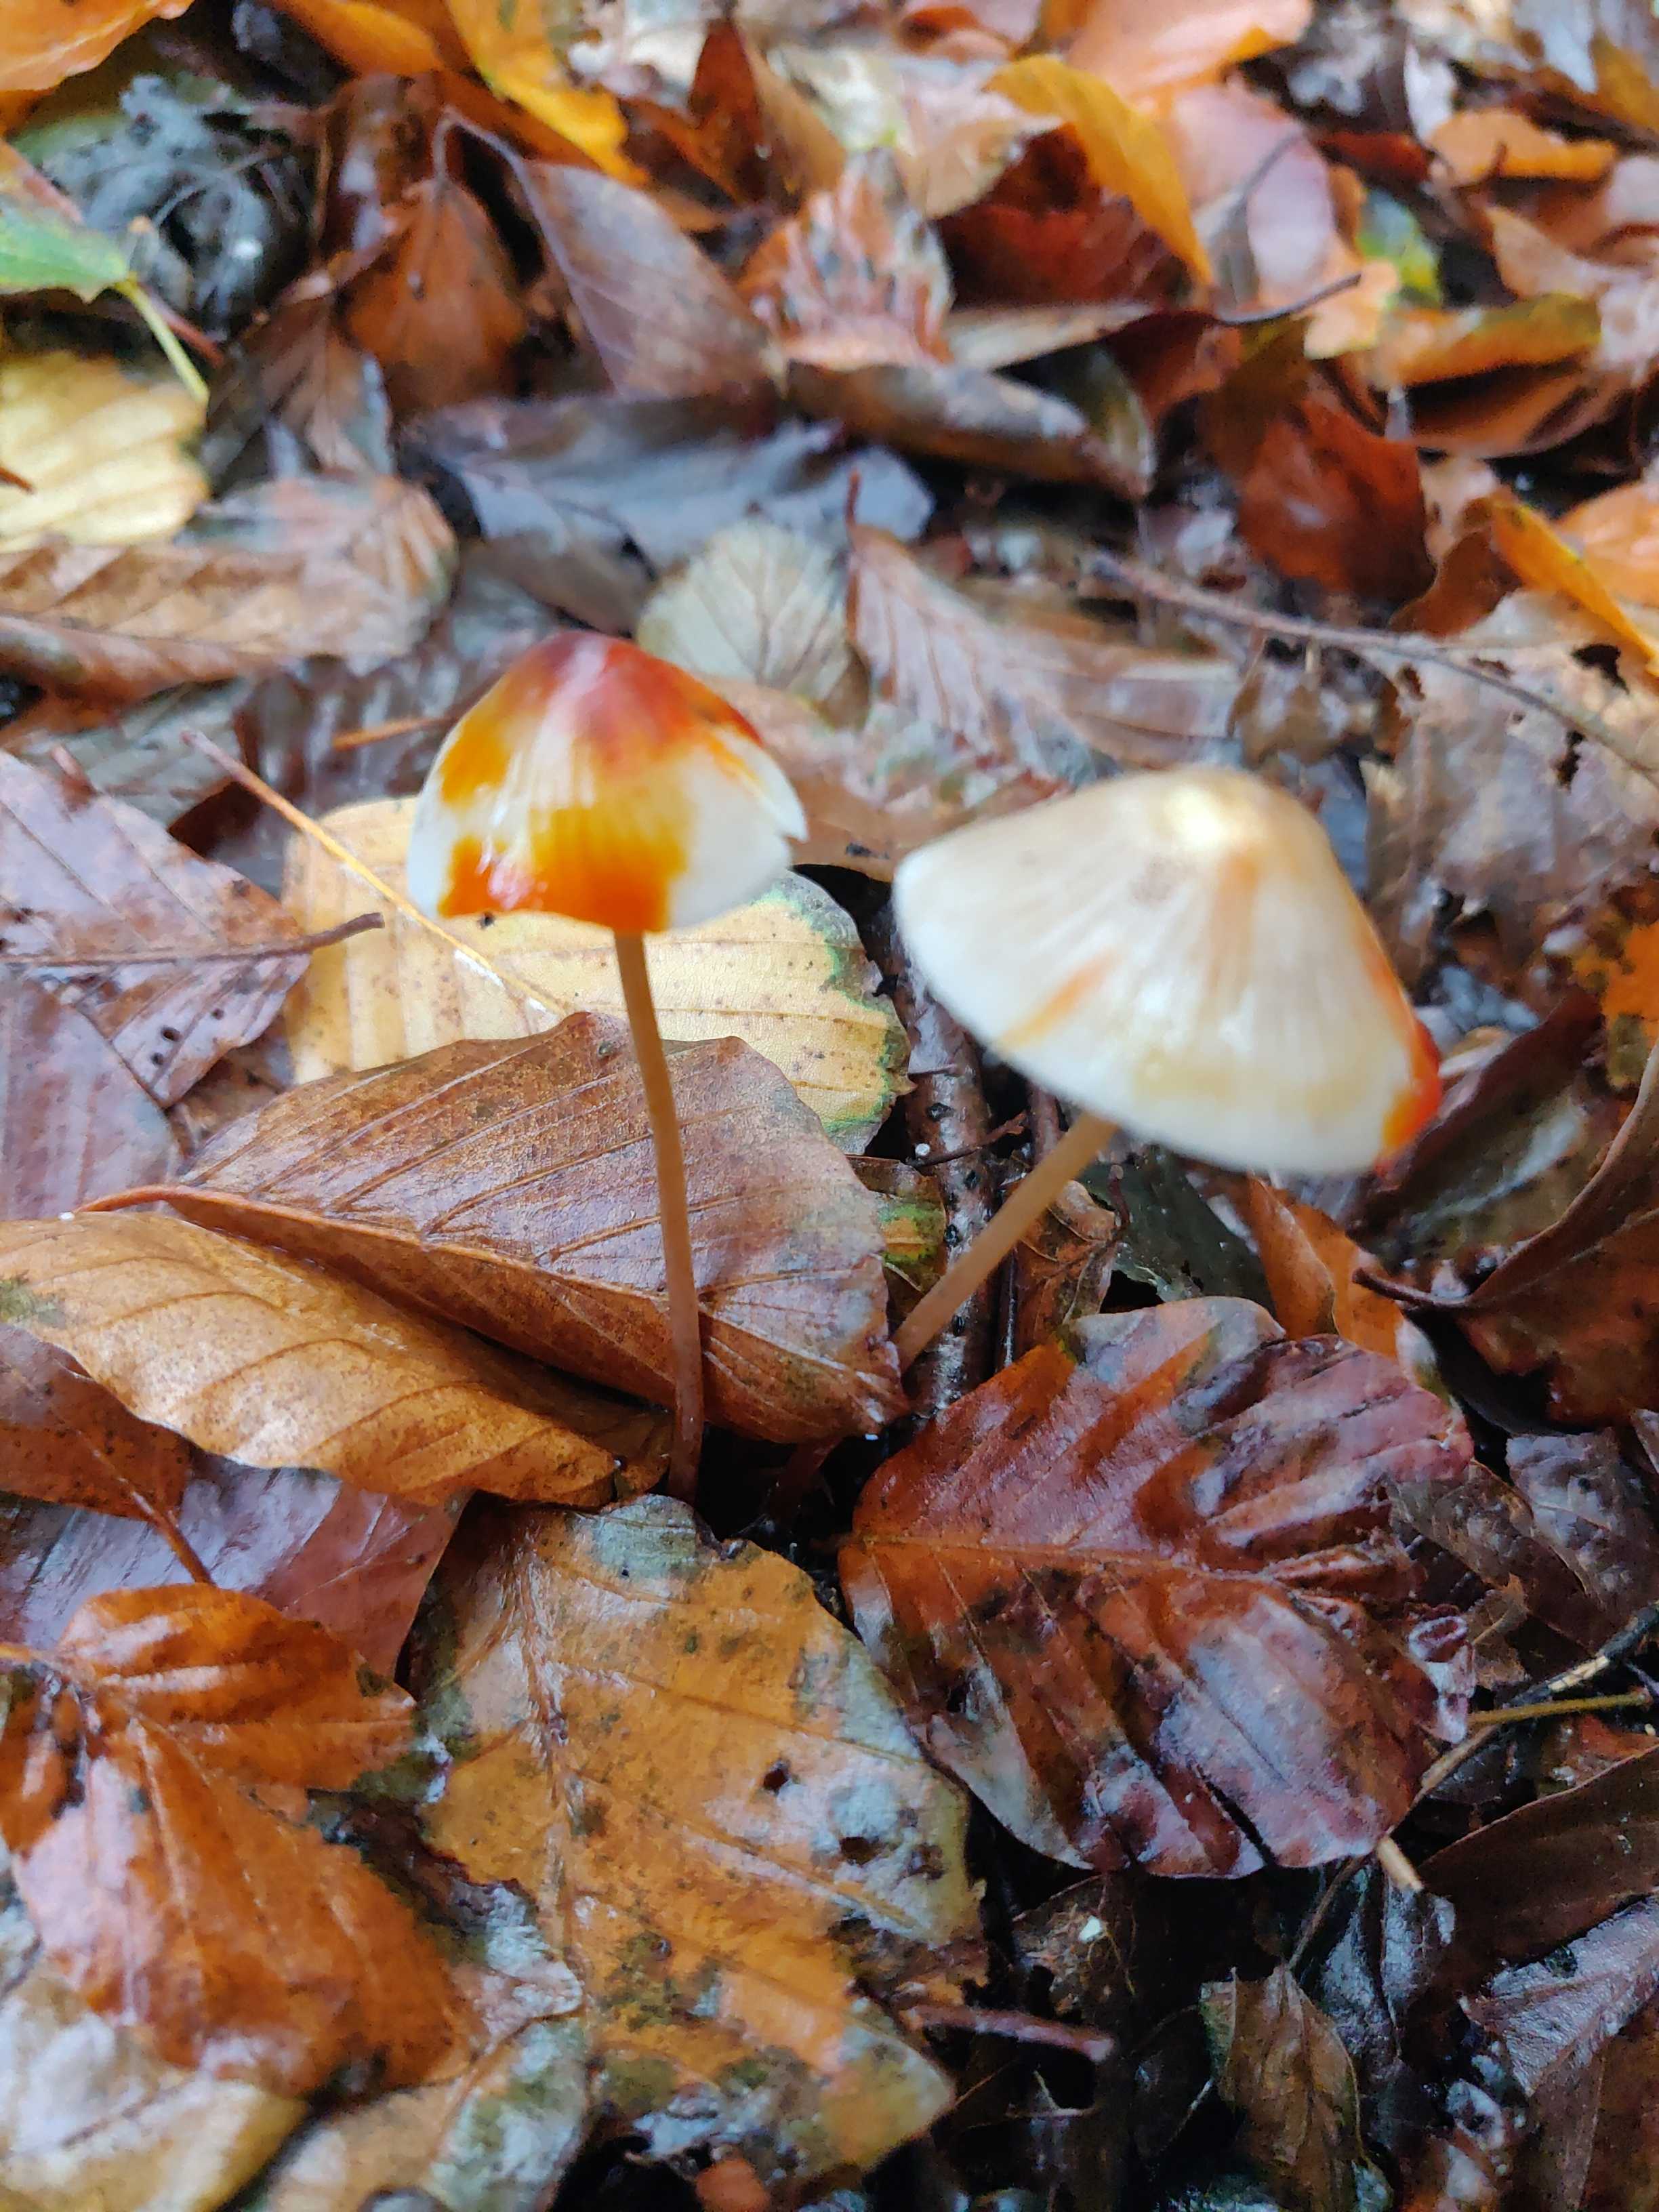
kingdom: Fungi
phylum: Basidiomycota
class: Agaricomycetes
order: Agaricales
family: Mycenaceae
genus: Mycena
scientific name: Mycena crocata
